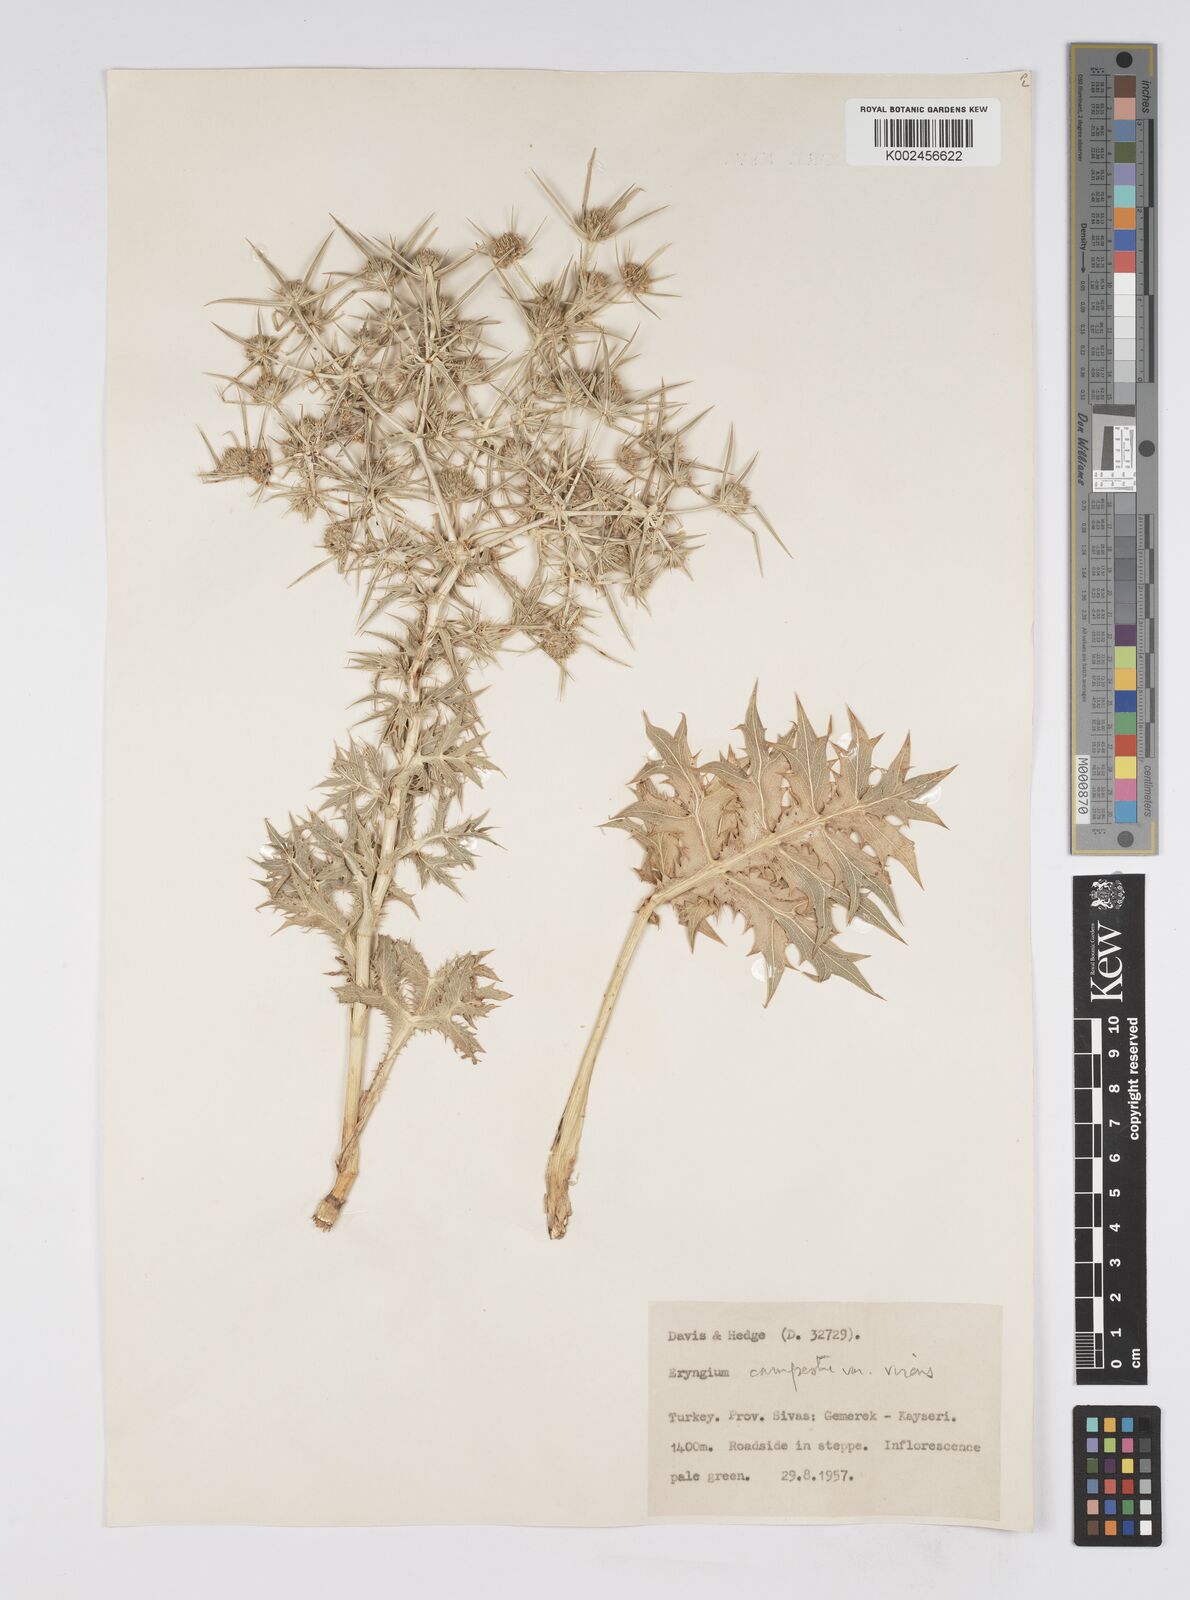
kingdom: Plantae
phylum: Tracheophyta
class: Magnoliopsida
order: Apiales
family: Apiaceae
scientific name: Apiaceae
